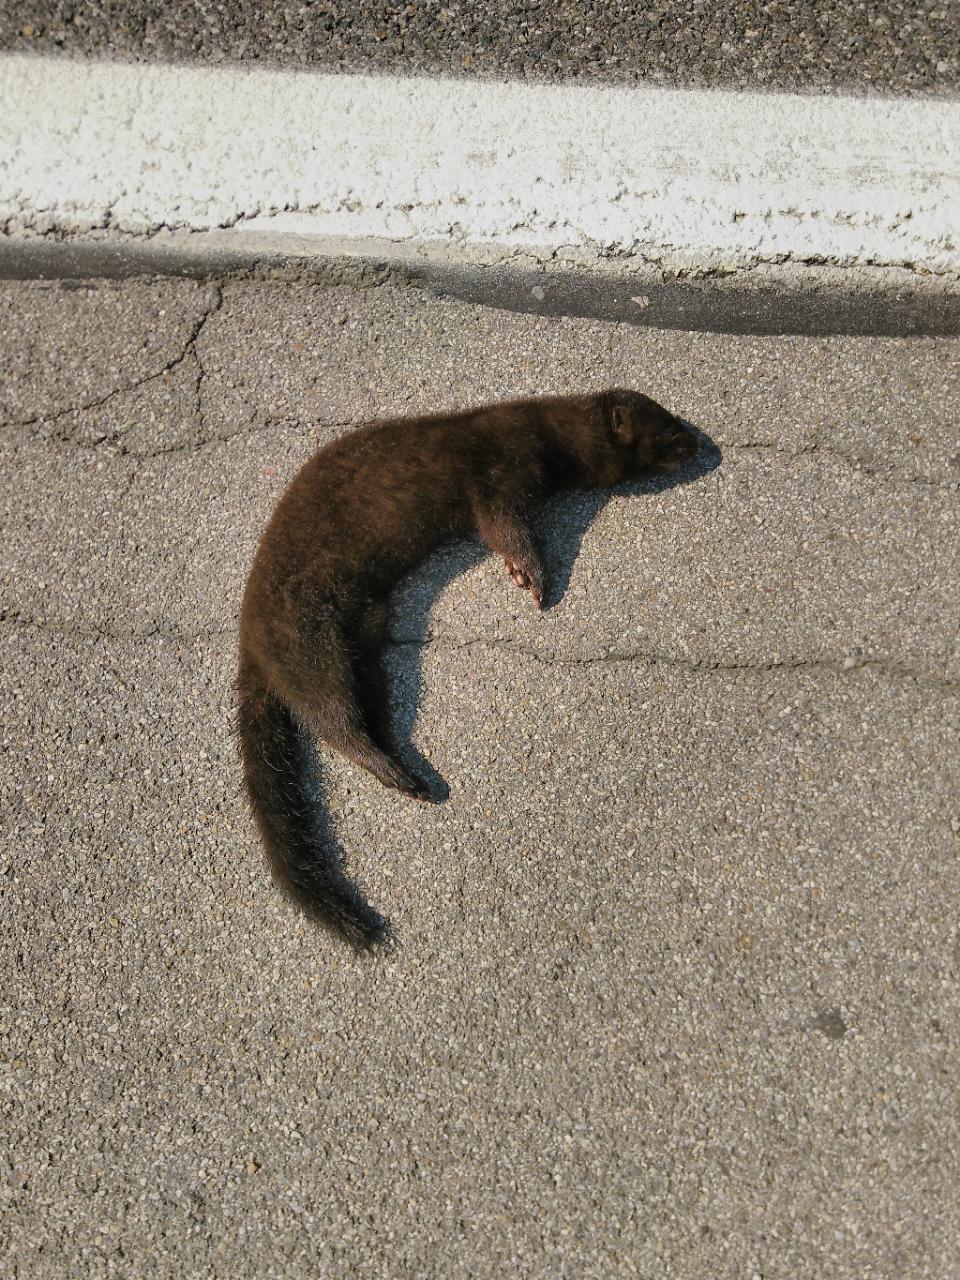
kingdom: Animalia
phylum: Chordata
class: Mammalia
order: Carnivora
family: Mustelidae
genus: Mustela
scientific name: Mustela vison
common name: American mink
